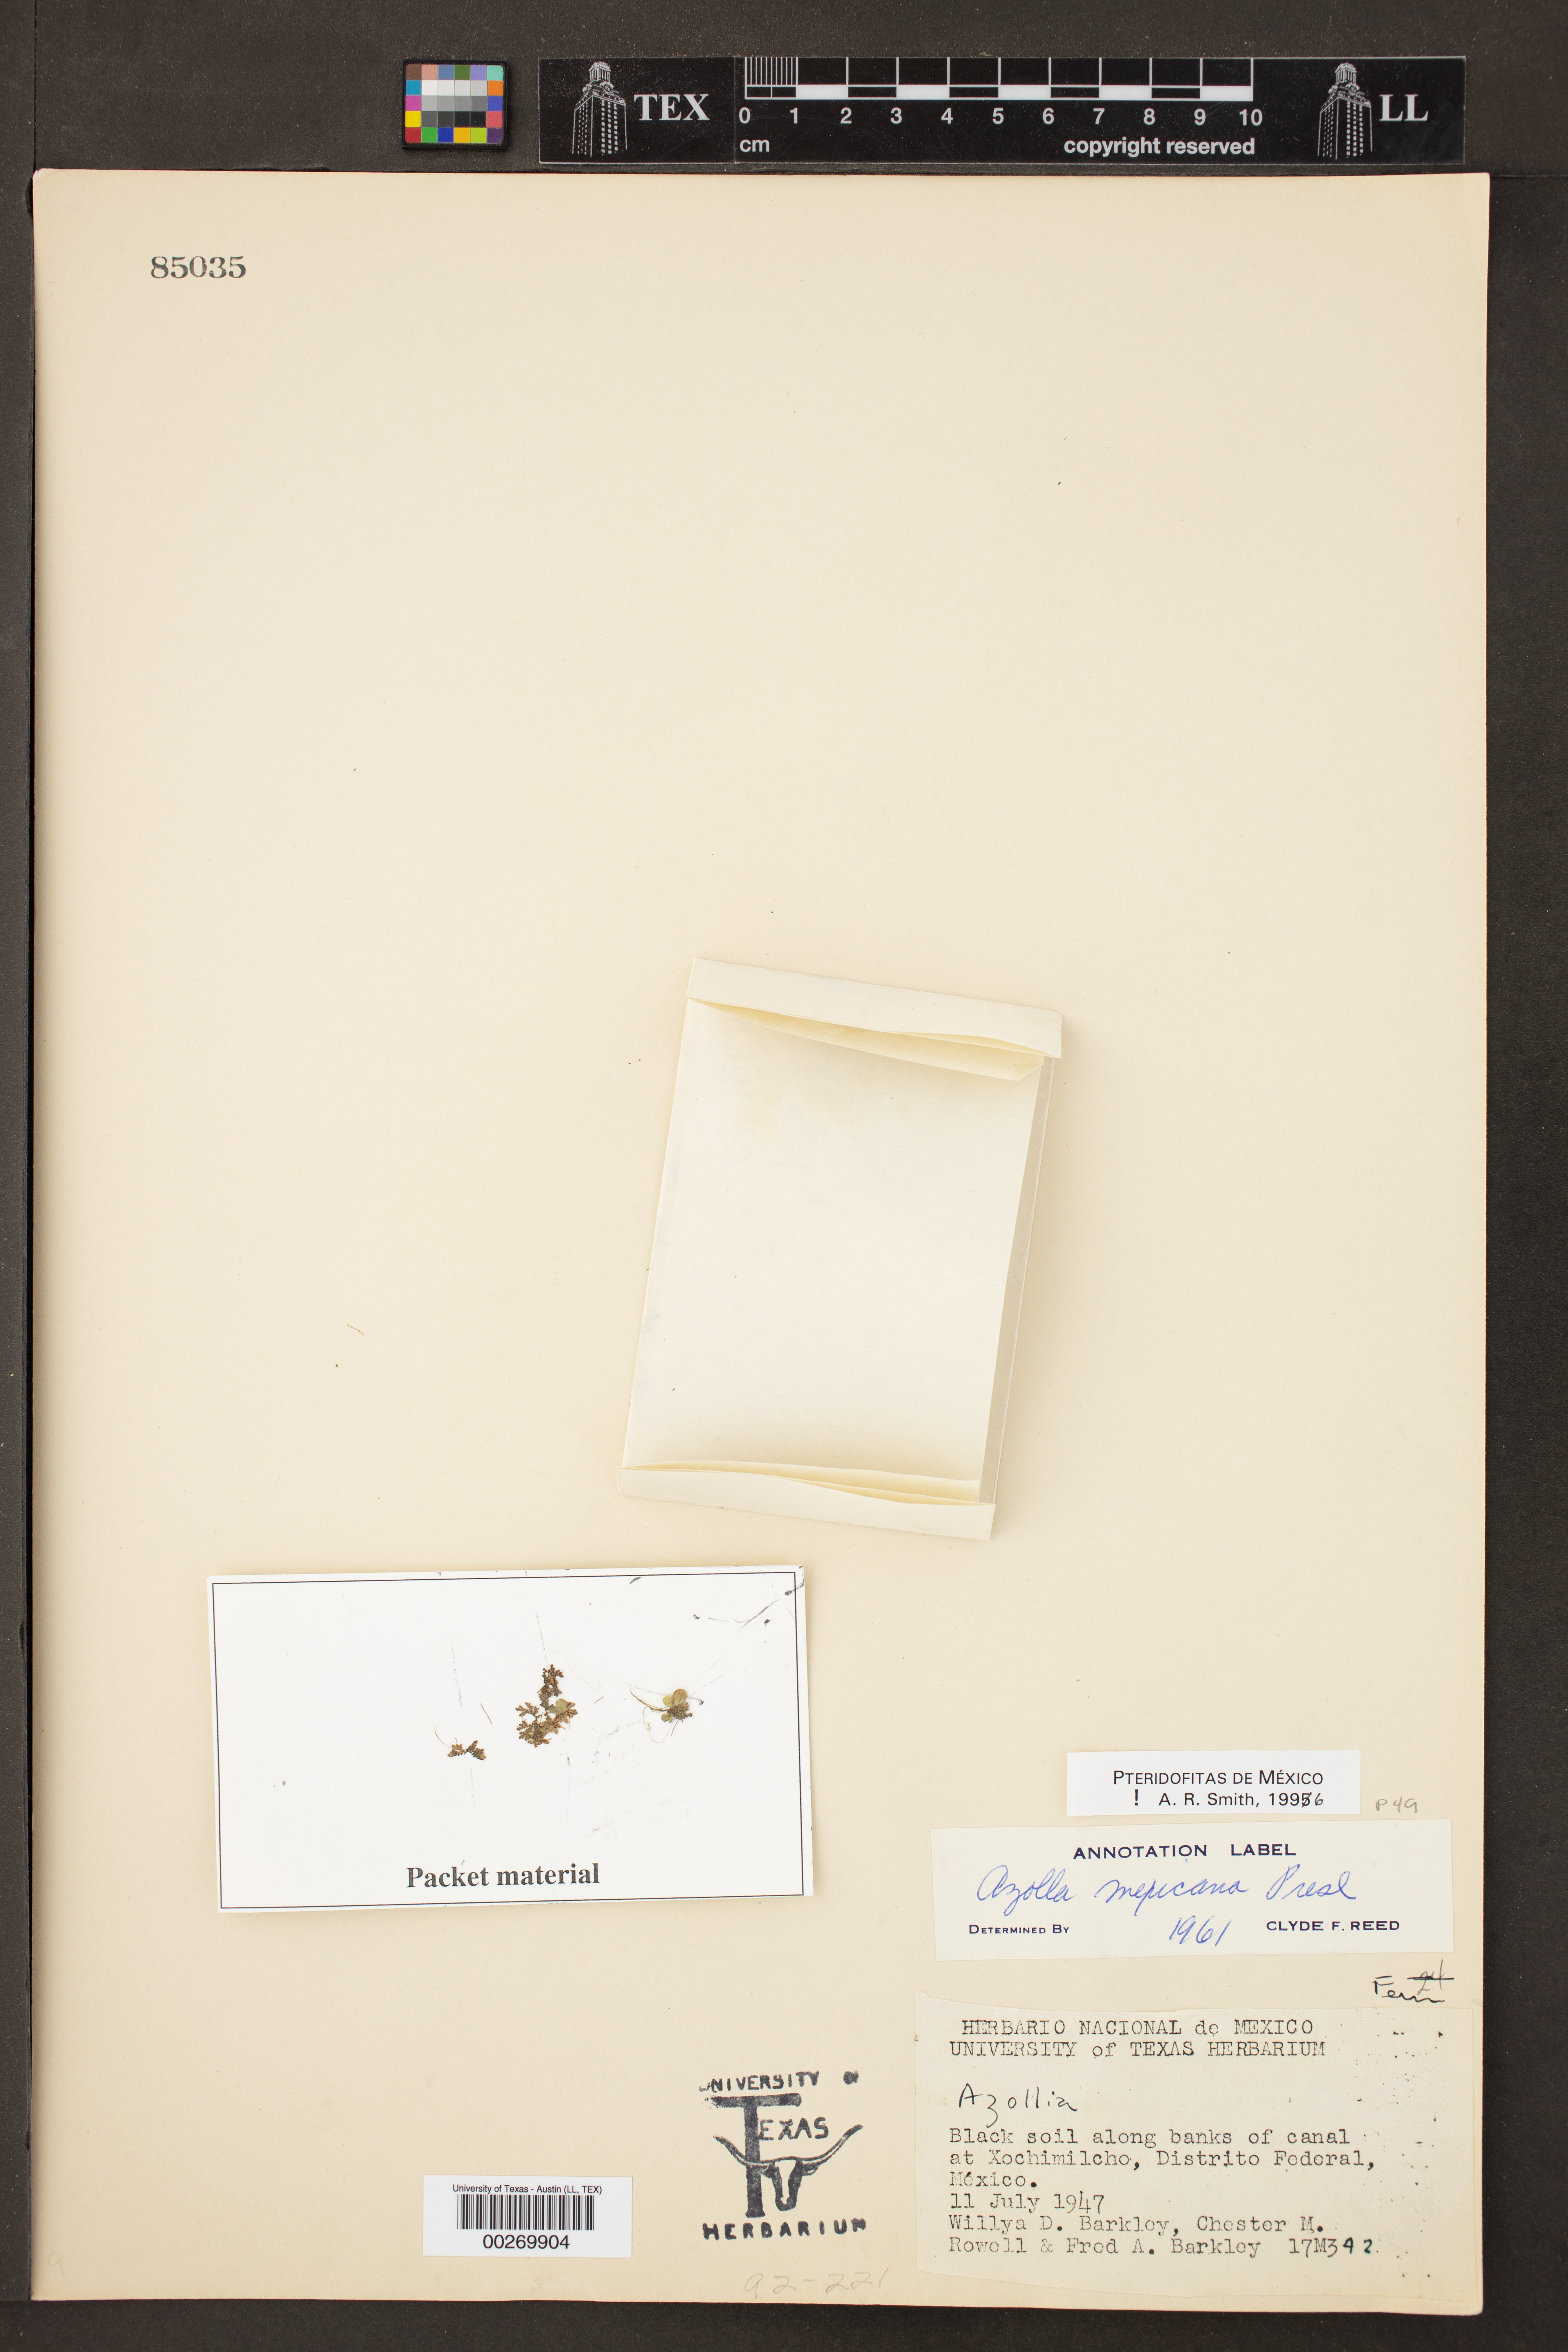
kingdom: Plantae
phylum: Tracheophyta
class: Polypodiopsida
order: Salviniales
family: Salviniaceae
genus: Azolla
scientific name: Azolla mexicana
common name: Mexican azolla
